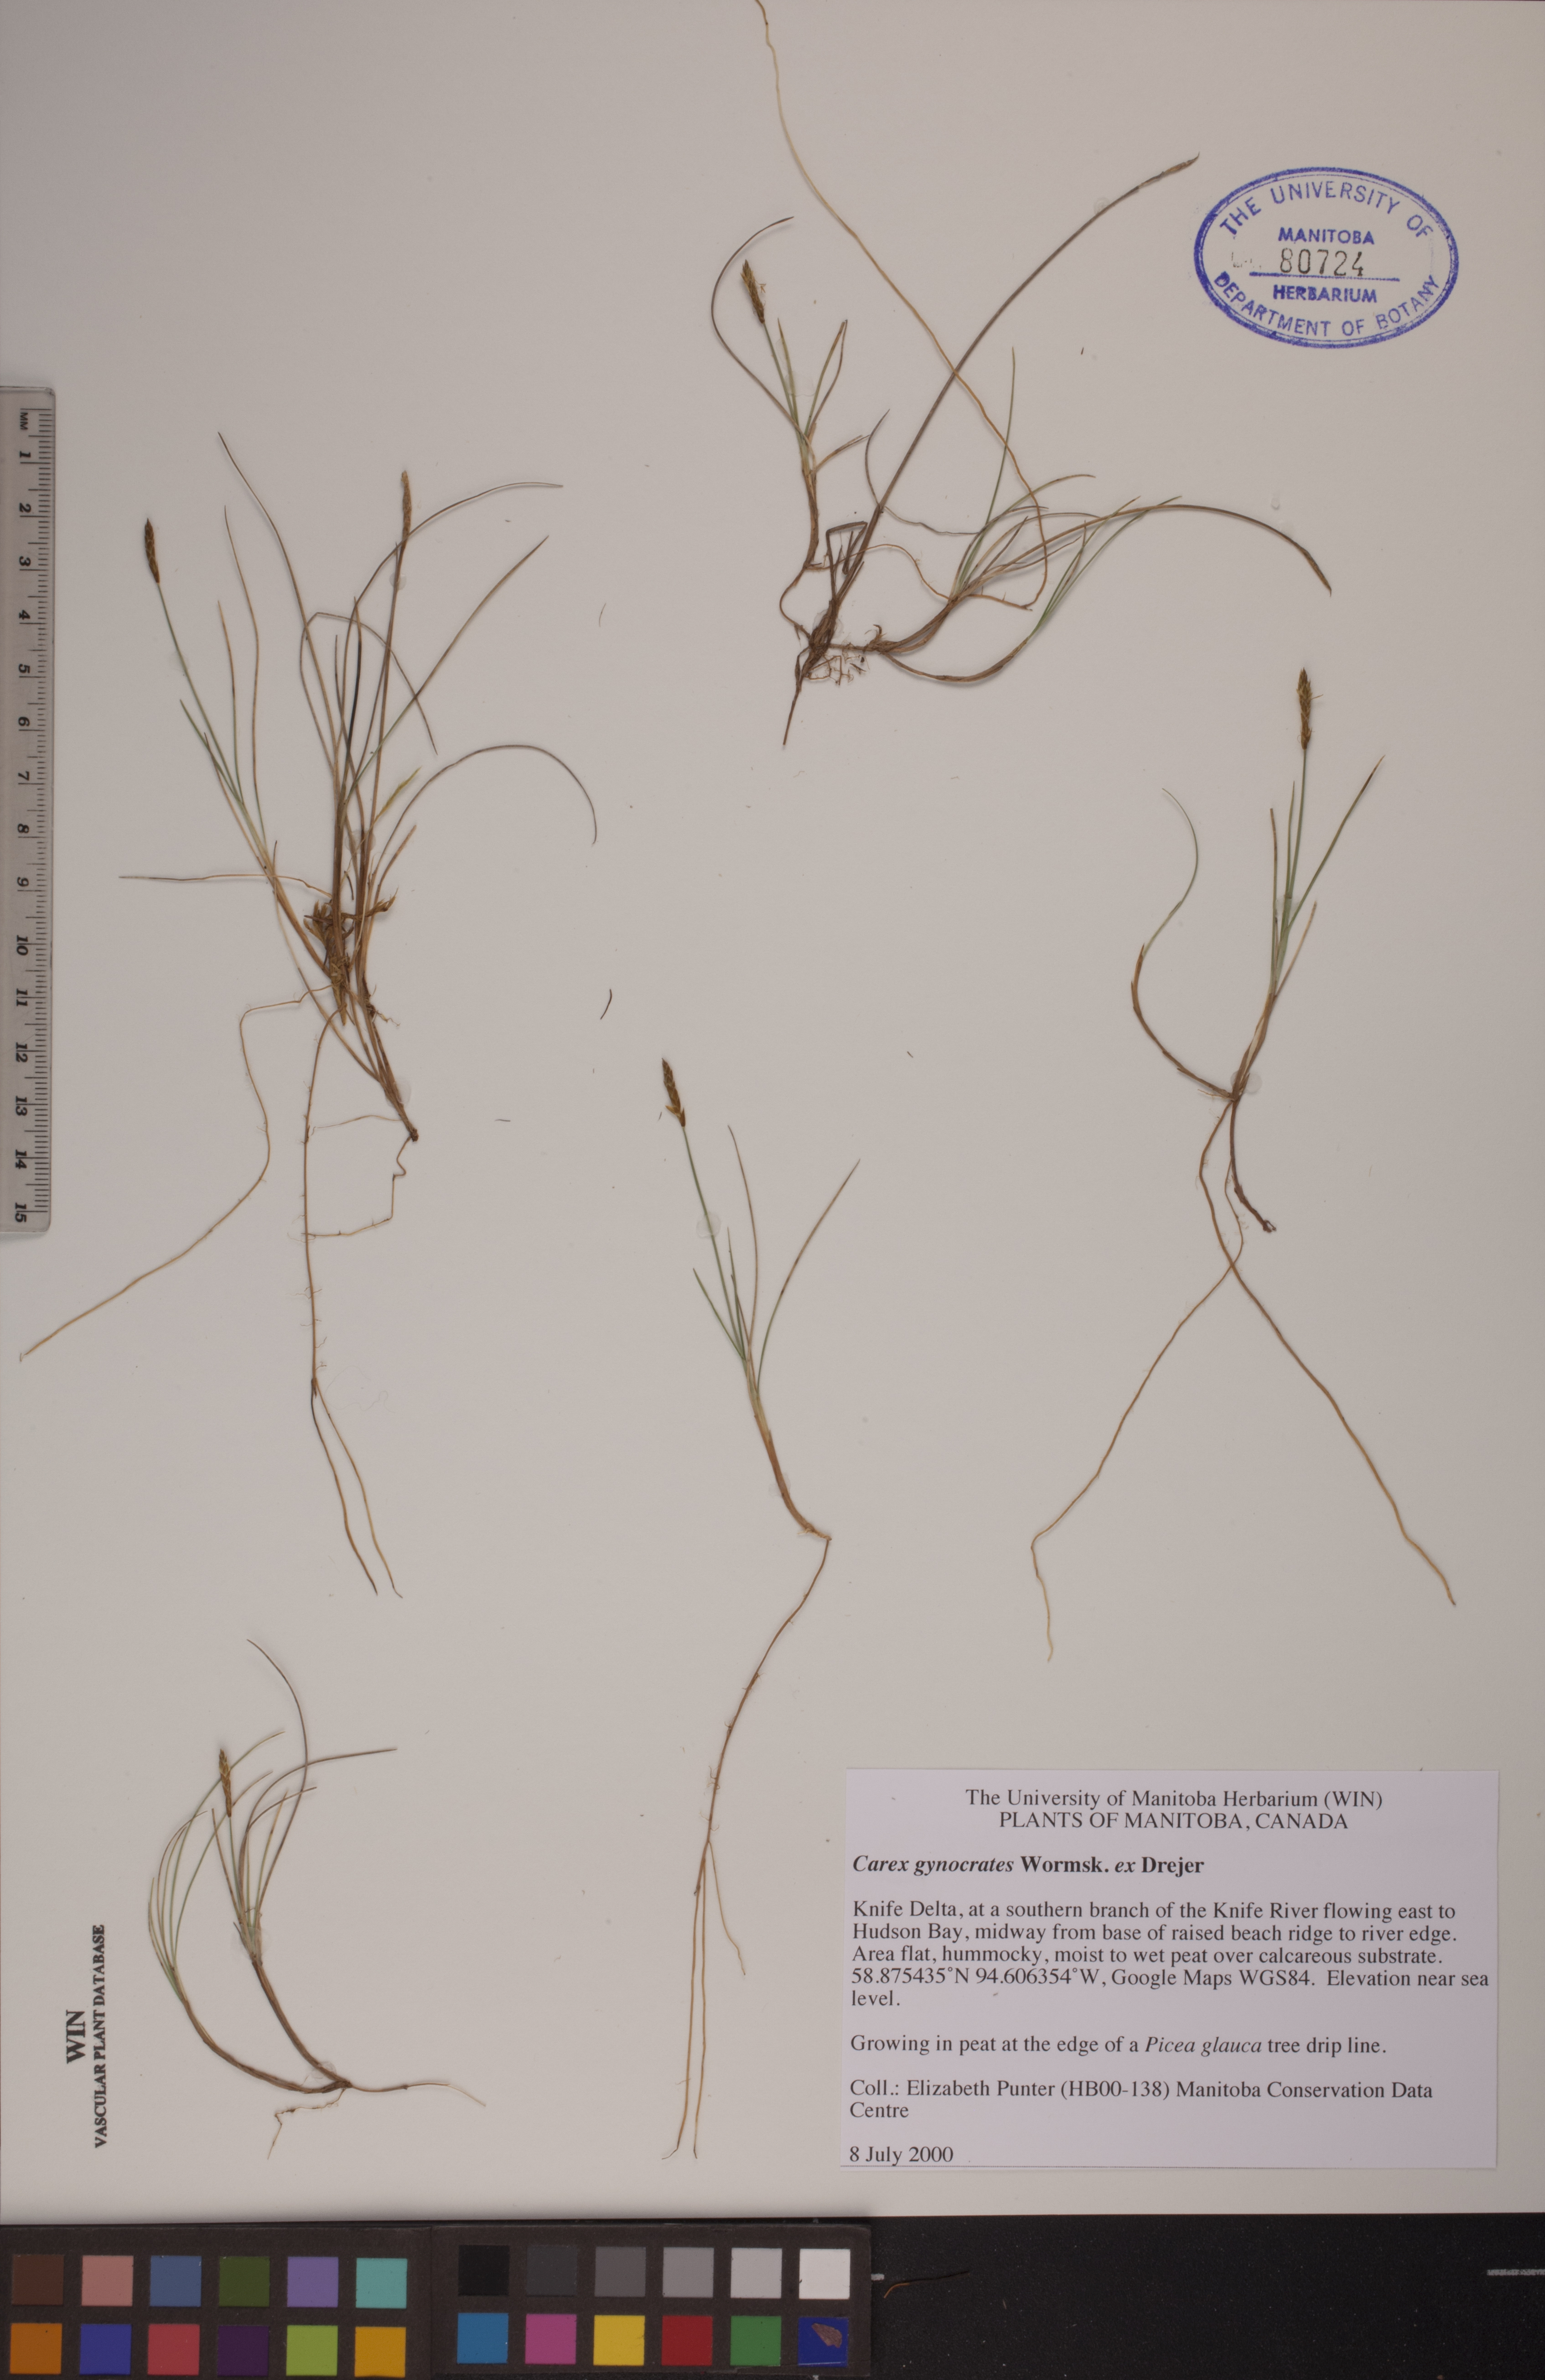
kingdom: Plantae
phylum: Tracheophyta
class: Liliopsida
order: Poales
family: Cyperaceae
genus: Carex
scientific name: Carex nardina
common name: Nard sedge
